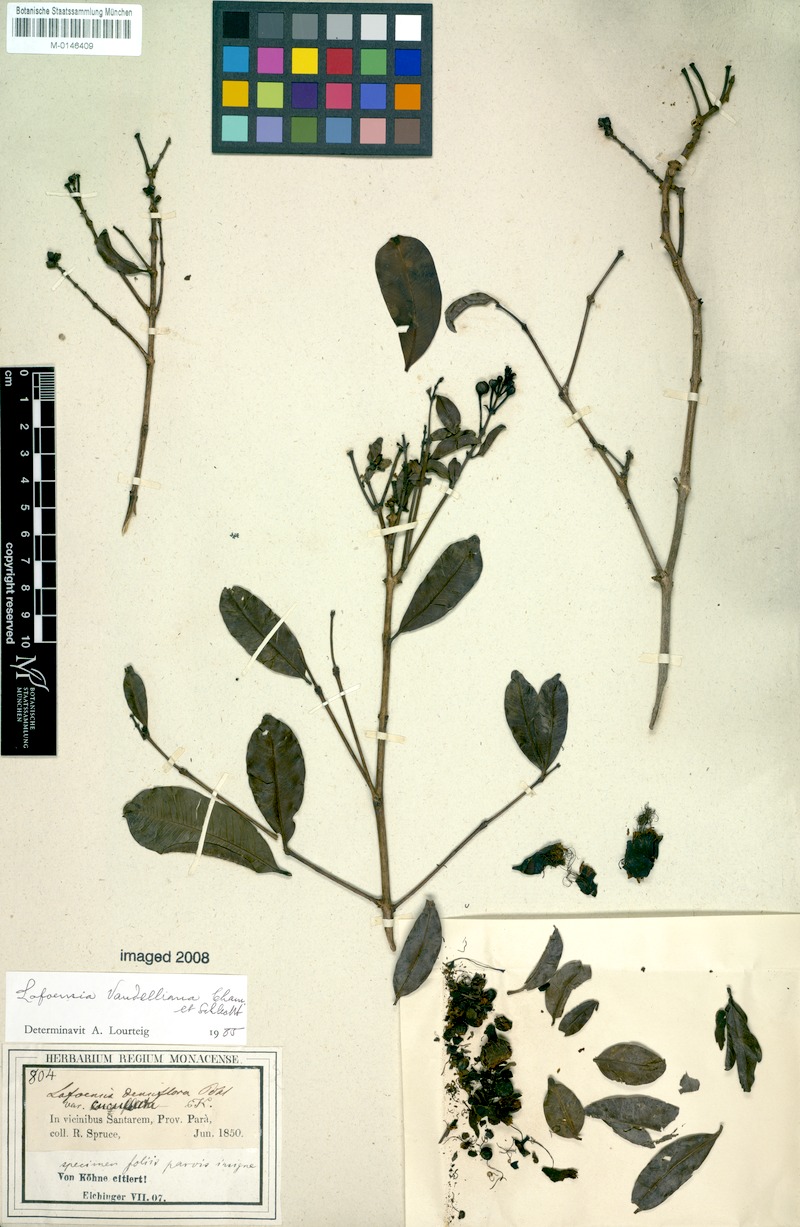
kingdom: Plantae
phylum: Tracheophyta
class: Magnoliopsida
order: Myrtales
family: Lythraceae
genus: Lafoensia
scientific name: Lafoensia vandelliana
